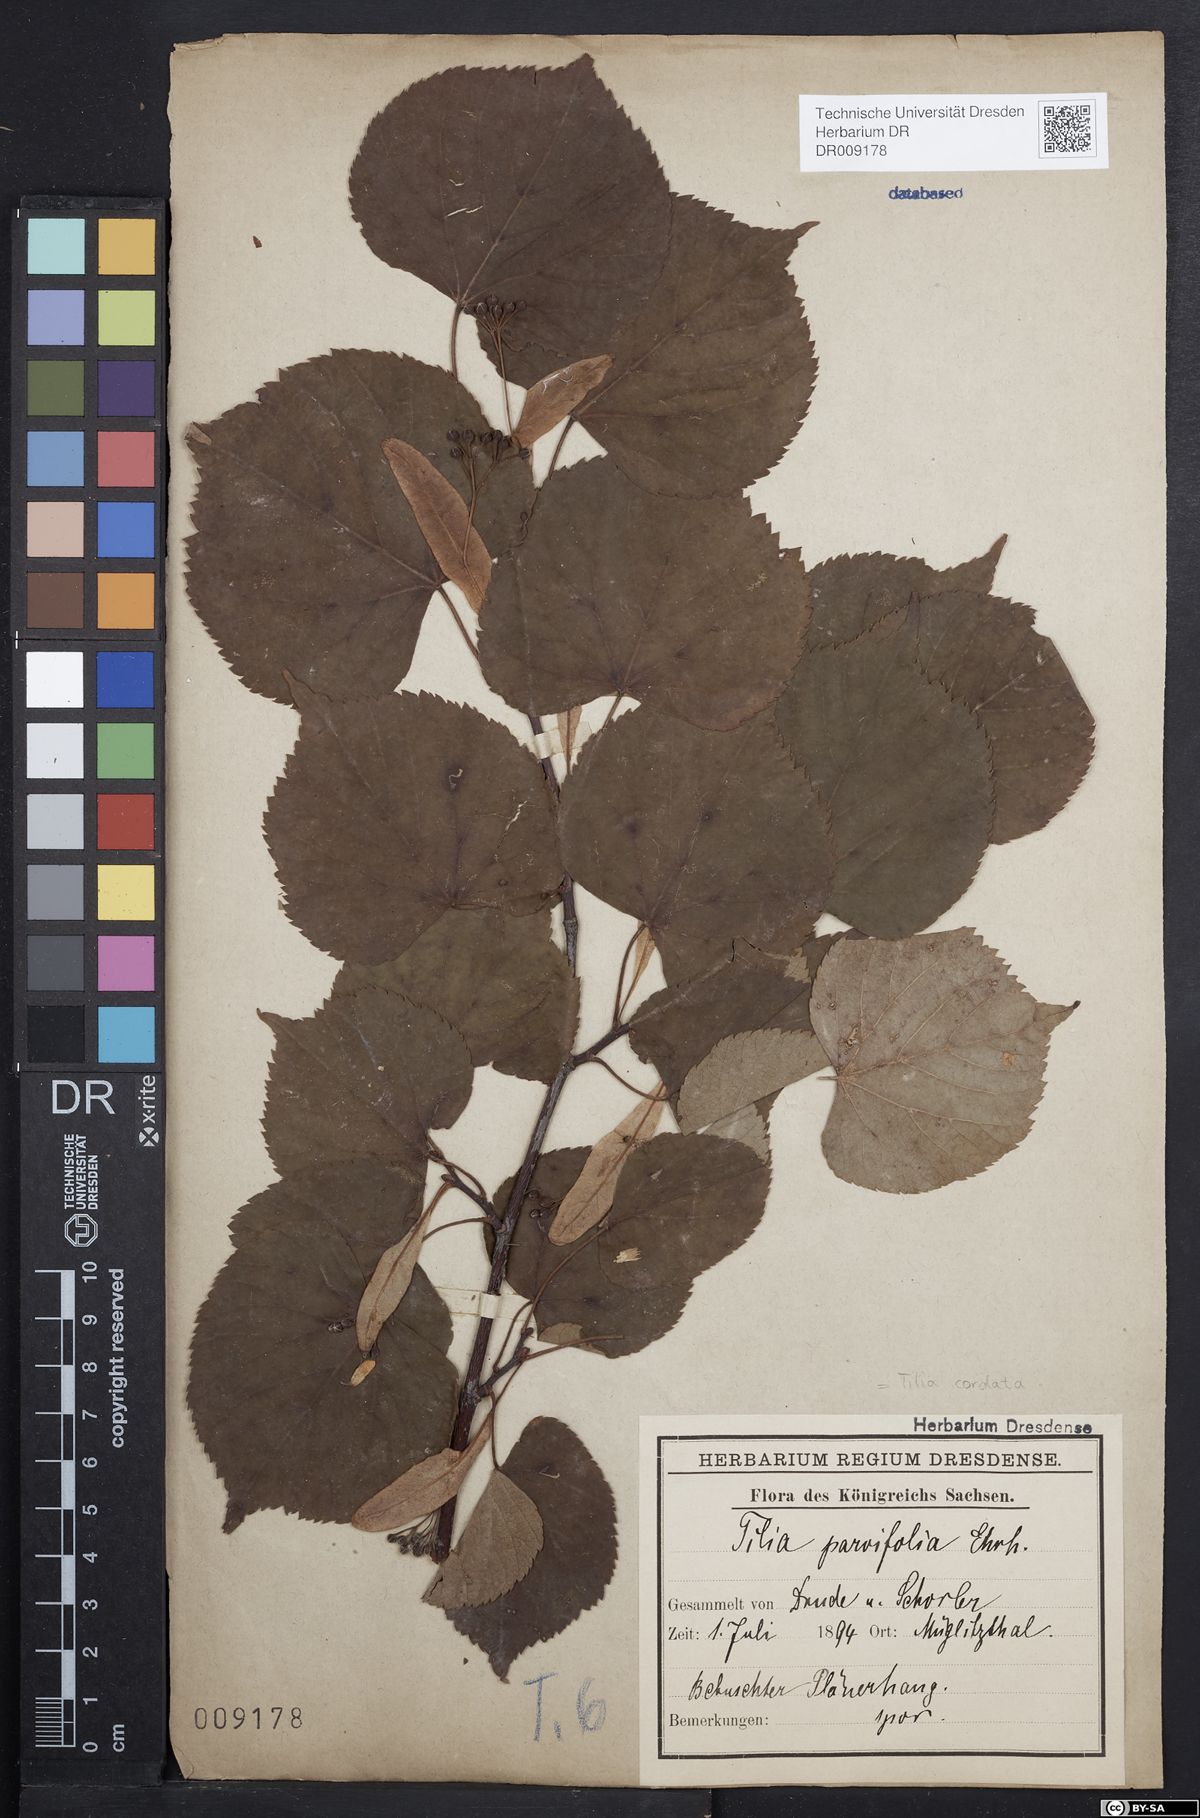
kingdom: Plantae
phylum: Tracheophyta
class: Magnoliopsida
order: Malvales
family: Malvaceae
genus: Tilia
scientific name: Tilia cordata
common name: Small-leaved lime
